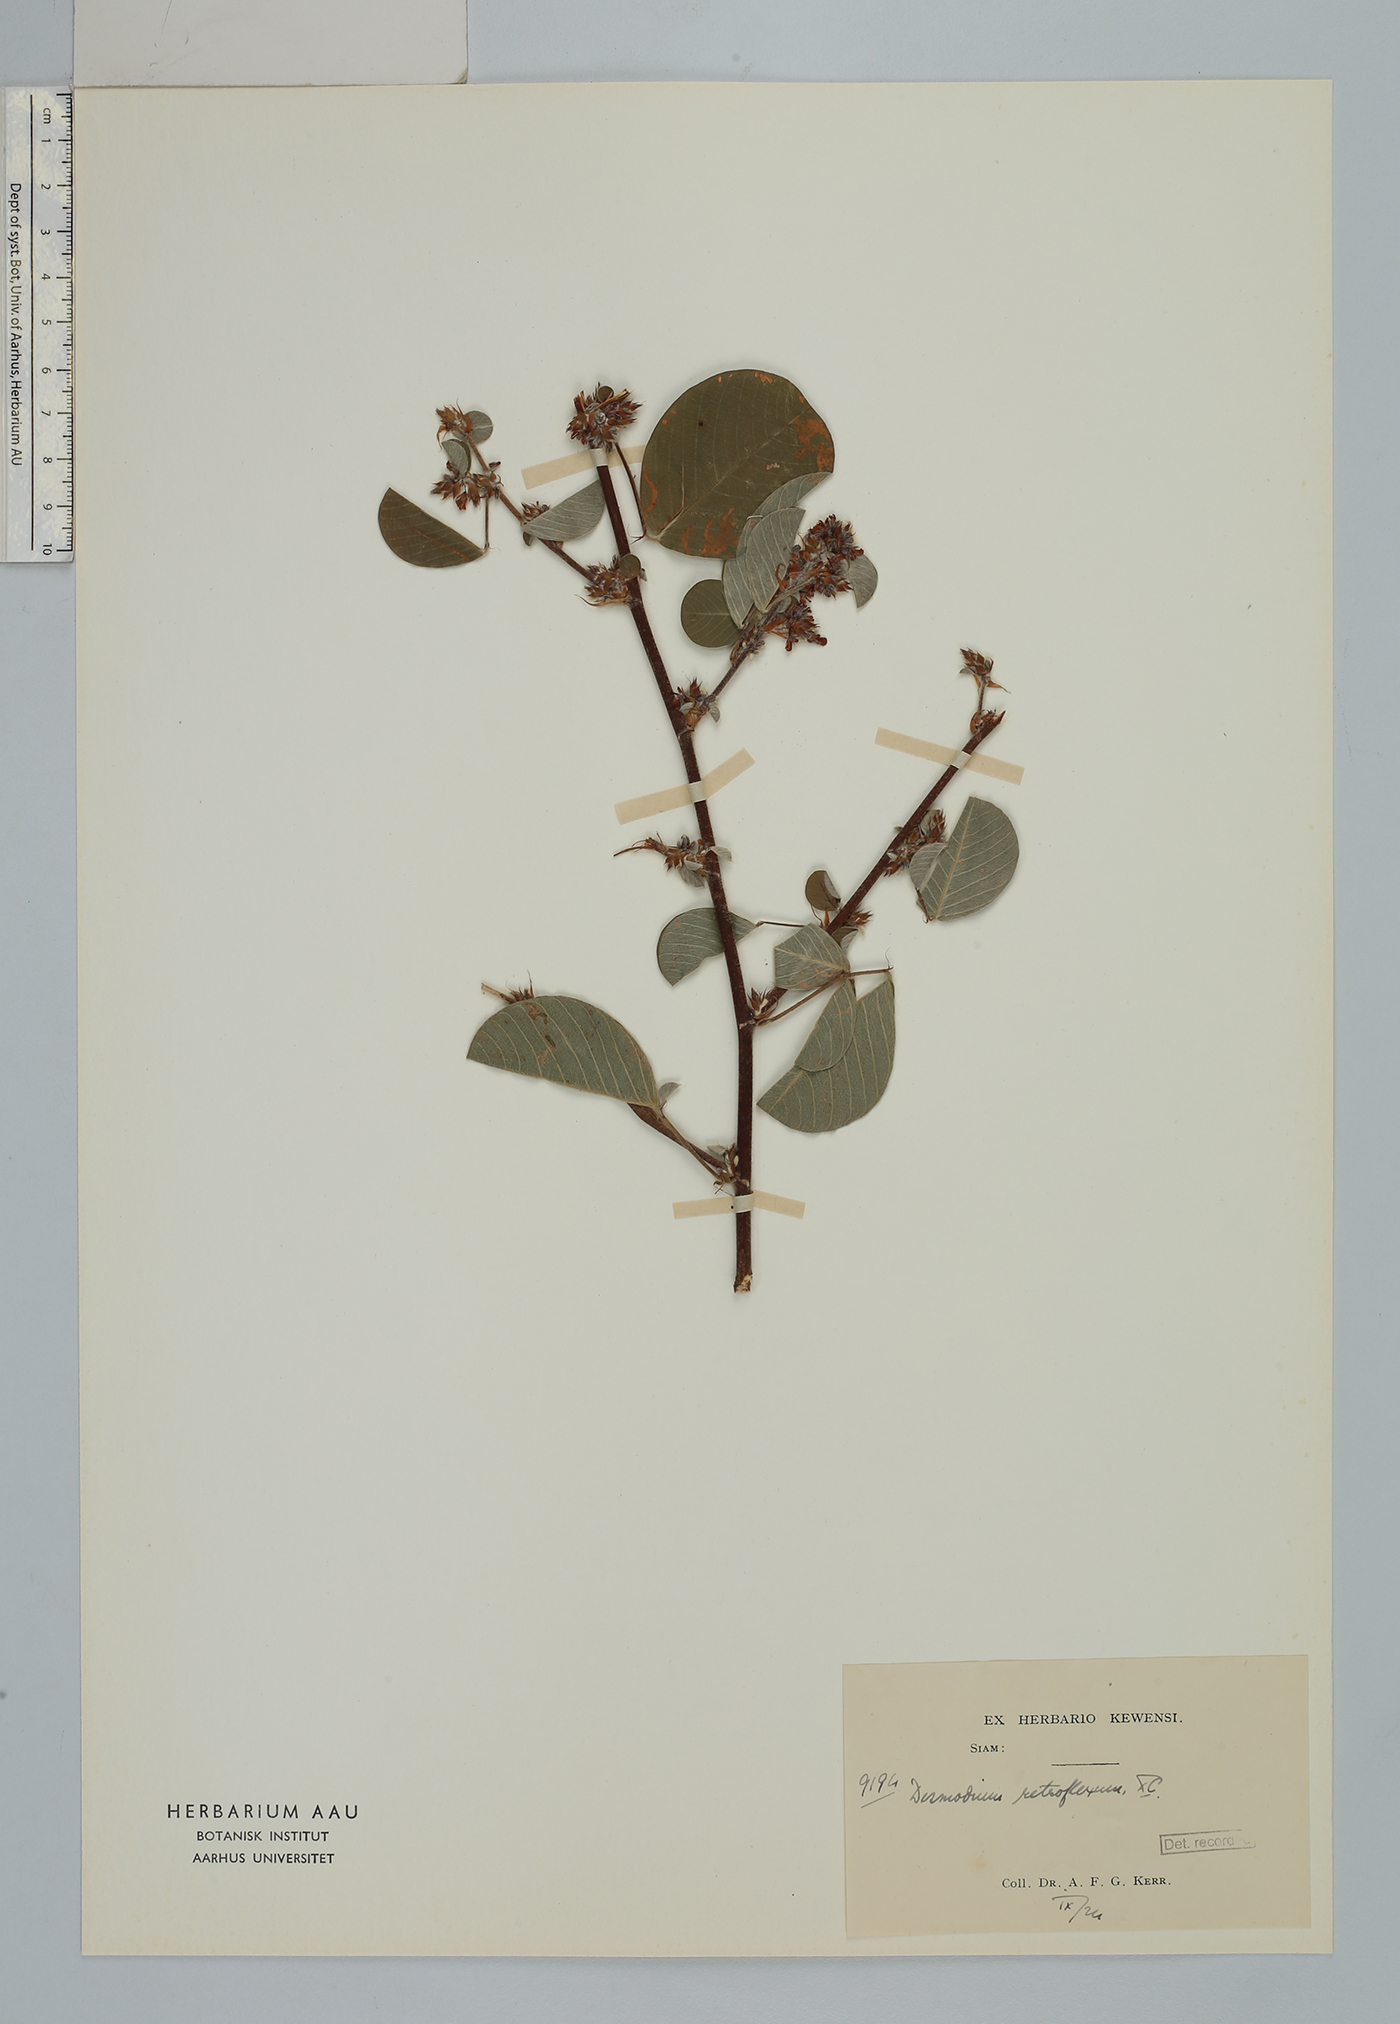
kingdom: Plantae
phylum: Tracheophyta
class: Magnoliopsida
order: Fabales
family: Fabaceae
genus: Grona
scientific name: Grona styracifolia
